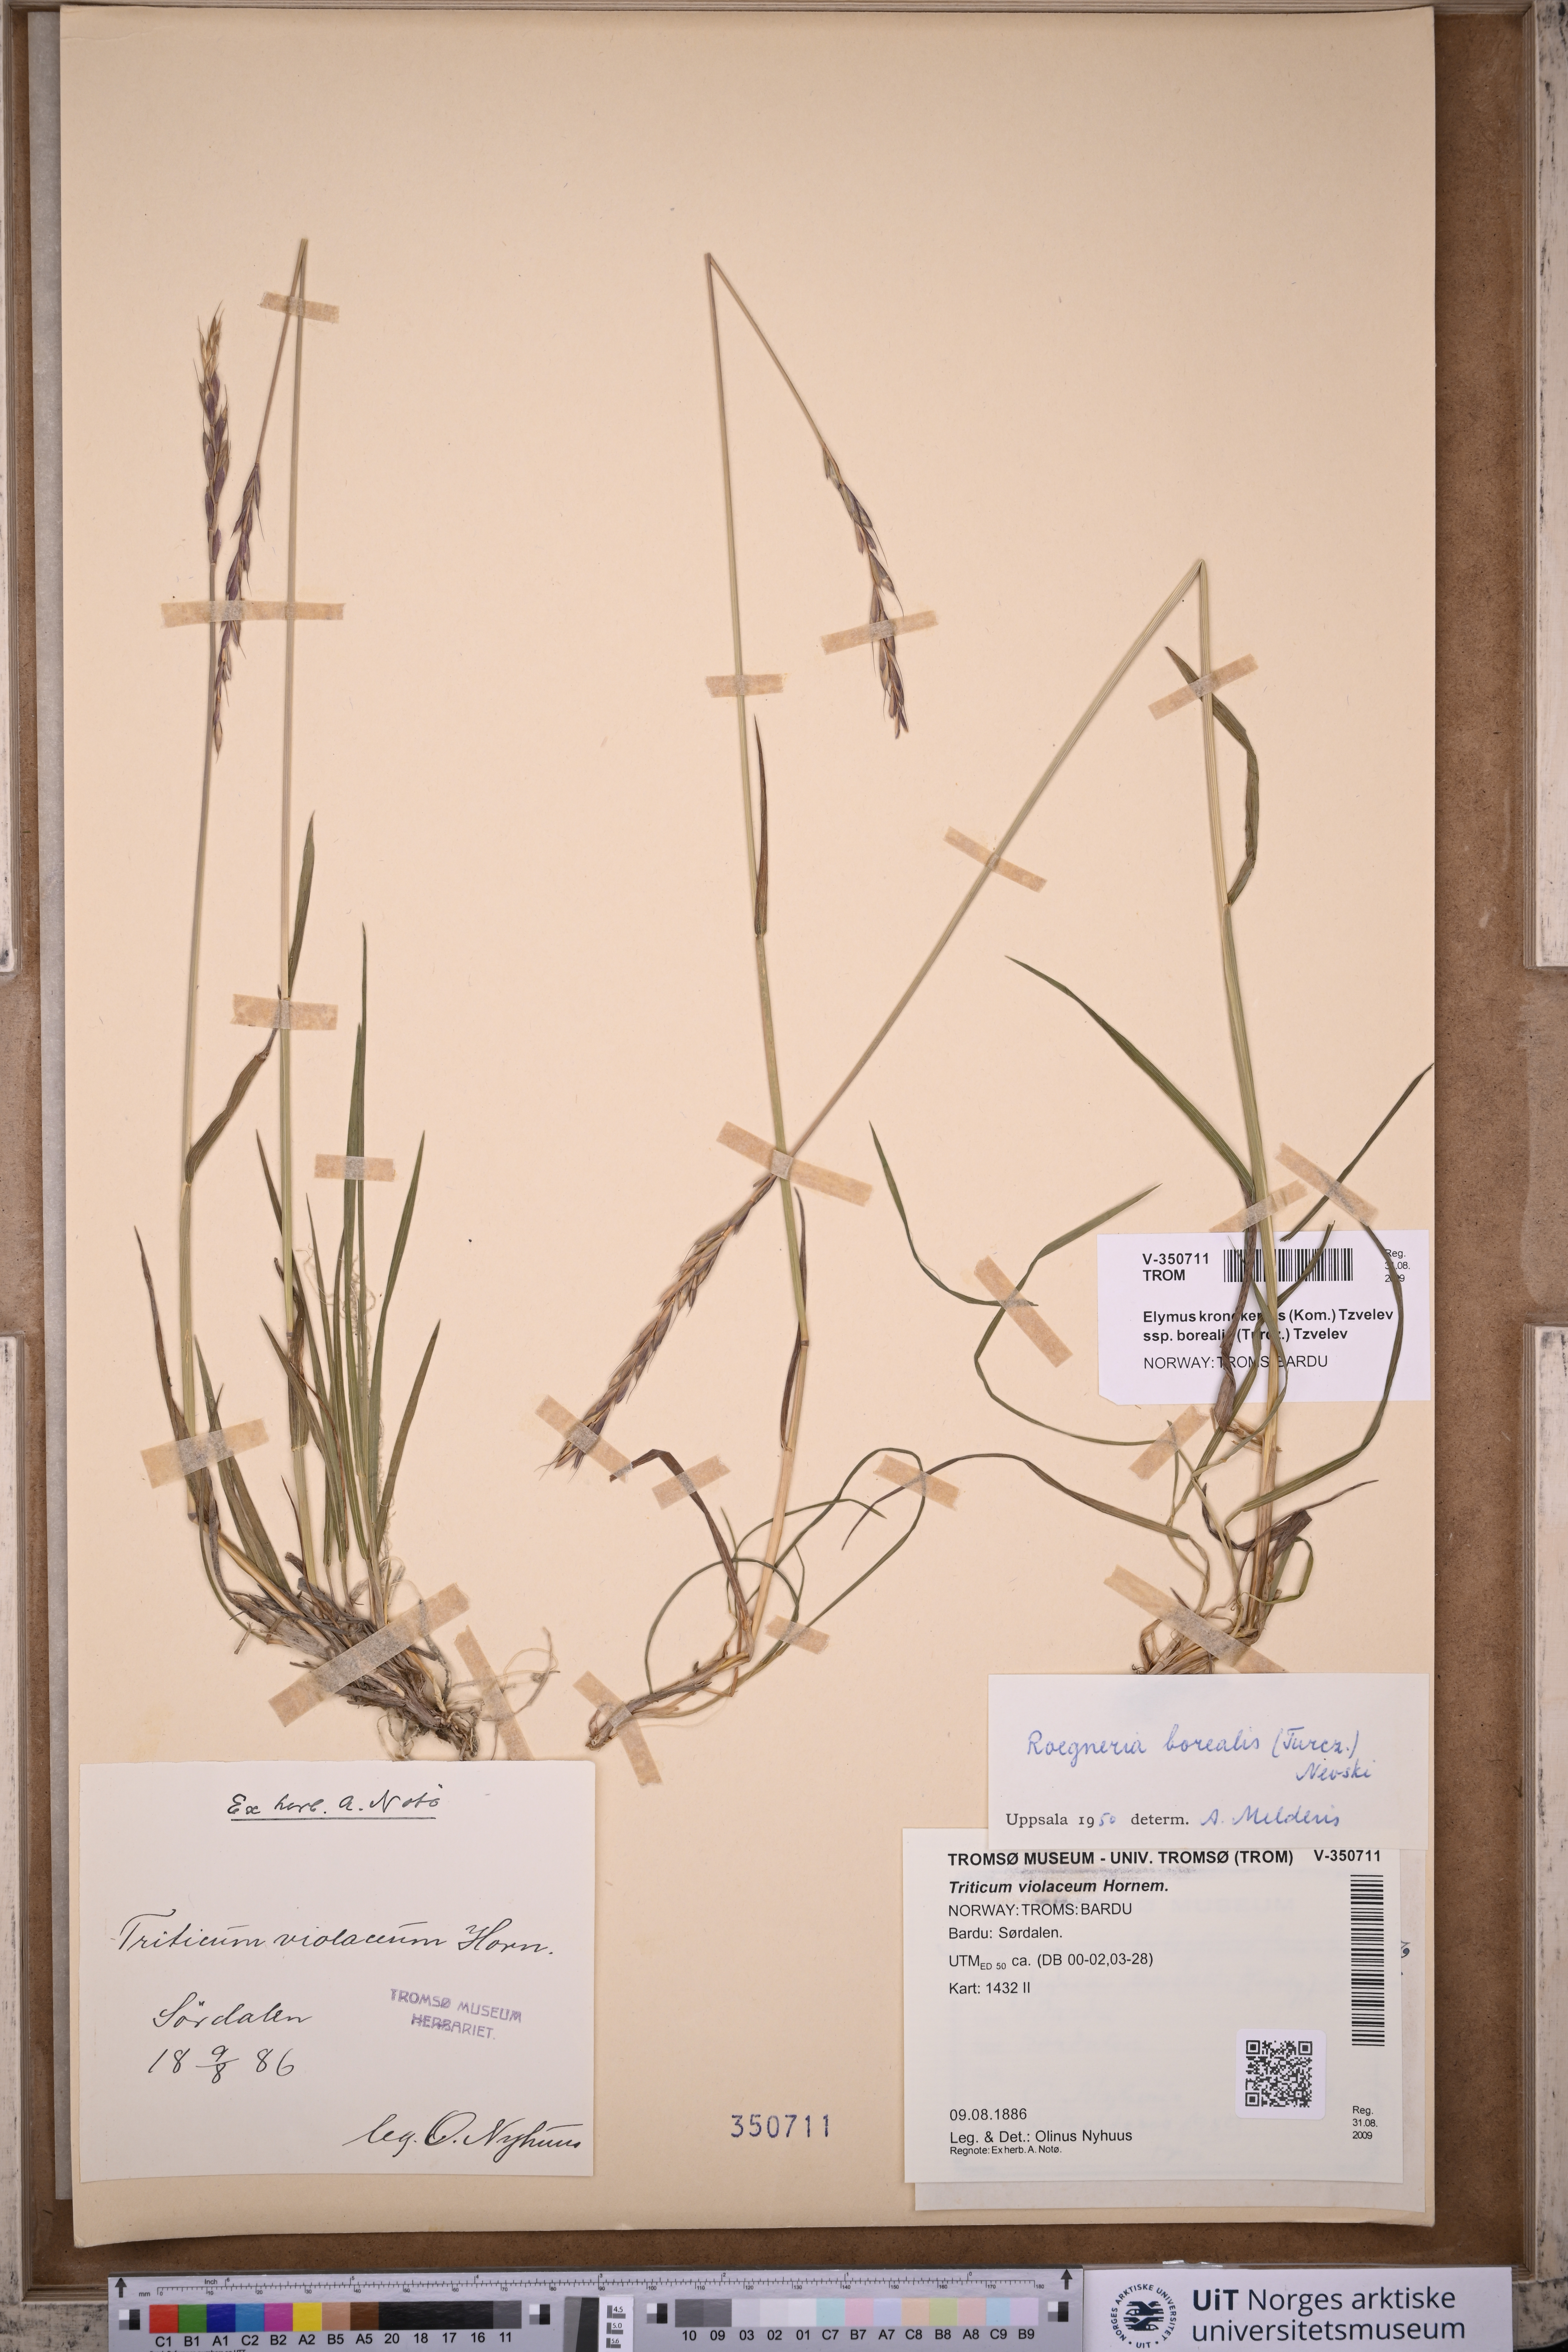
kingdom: Plantae
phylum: Tracheophyta
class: Liliopsida
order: Poales
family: Poaceae
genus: Elymus
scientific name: Elymus macrourus
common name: Northern wheatgrass
